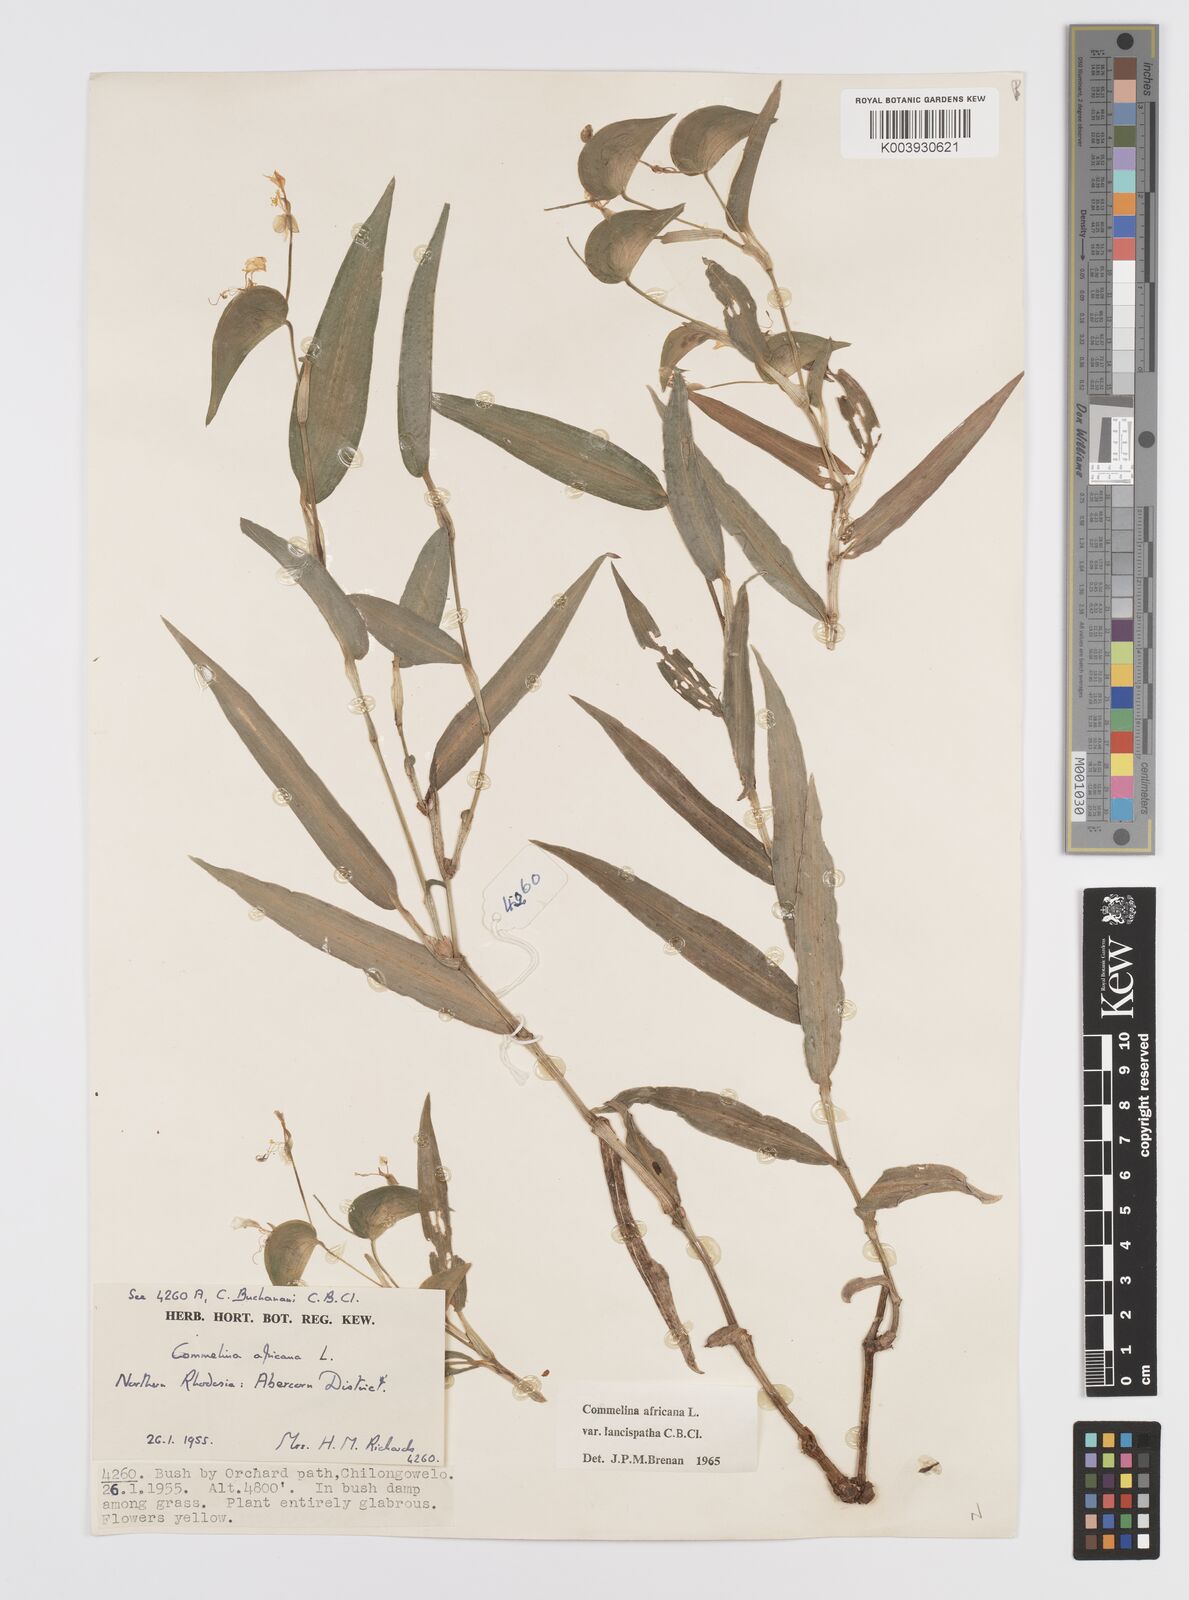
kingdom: Plantae
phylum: Tracheophyta
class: Liliopsida
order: Commelinales
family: Commelinaceae
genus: Commelina
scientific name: Commelina africana
